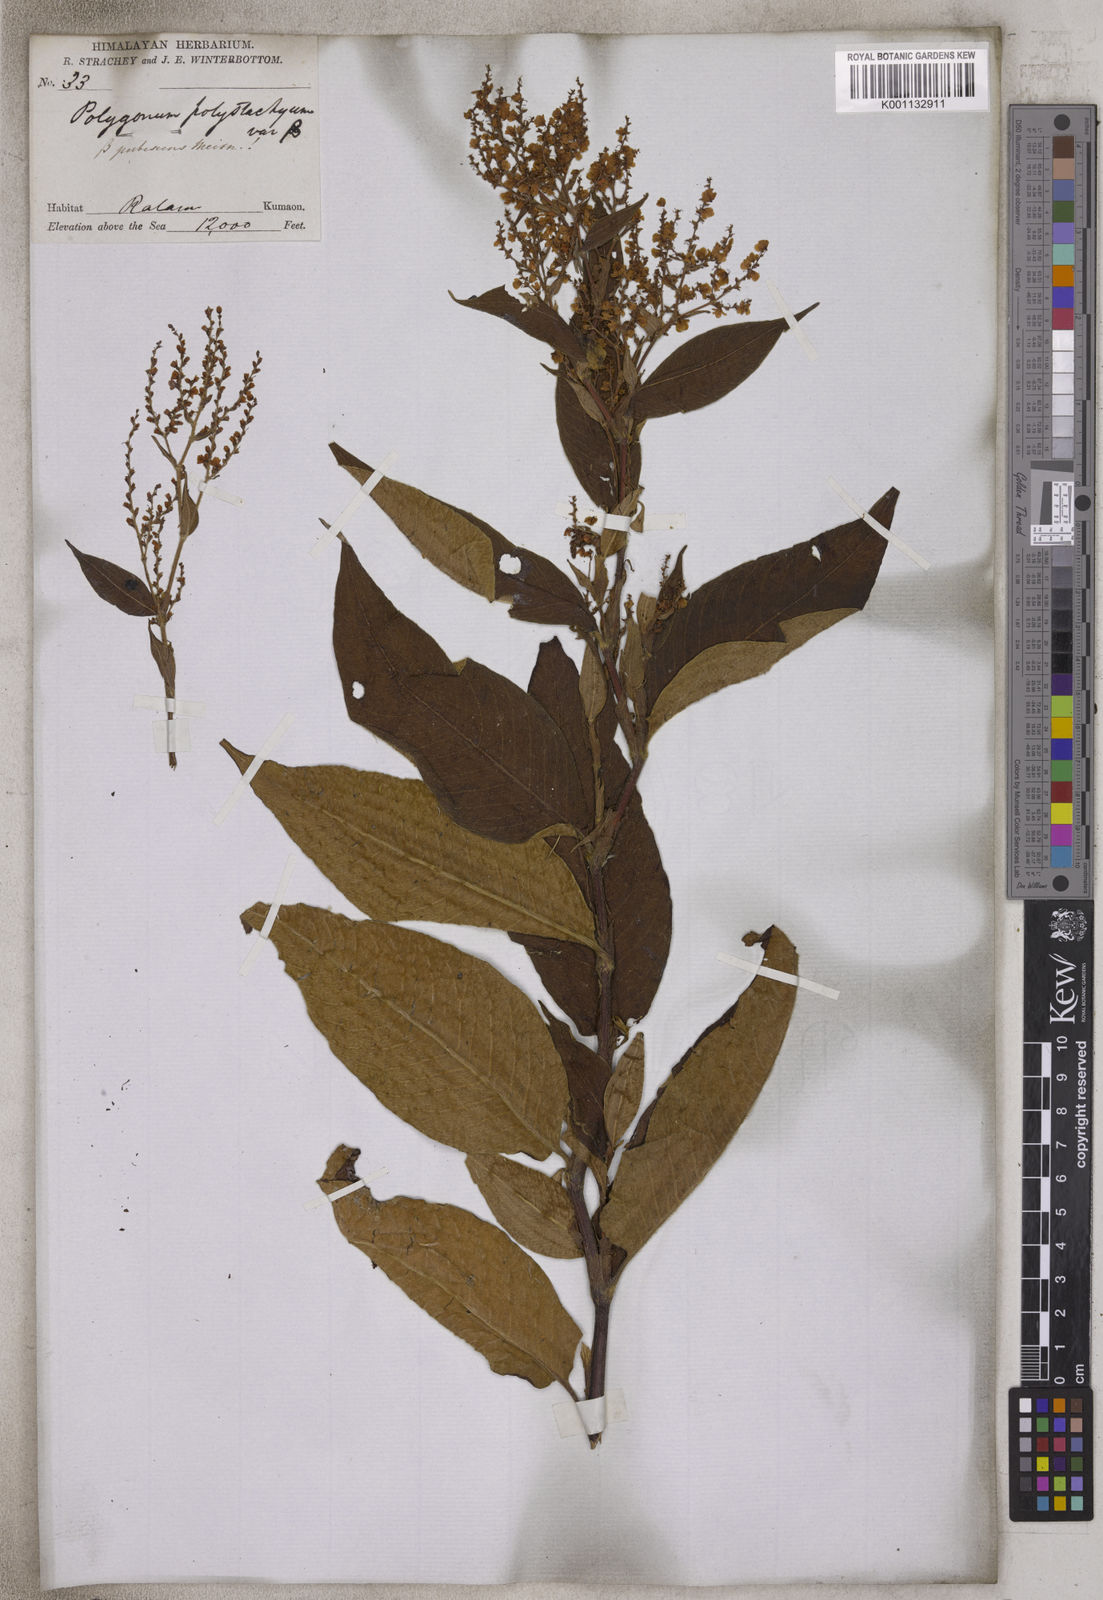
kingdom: Plantae
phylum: Tracheophyta
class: Magnoliopsida
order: Caryophyllales
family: Polygonaceae
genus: Koenigia
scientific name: Koenigia polystachya
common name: Himalayan knotweed
